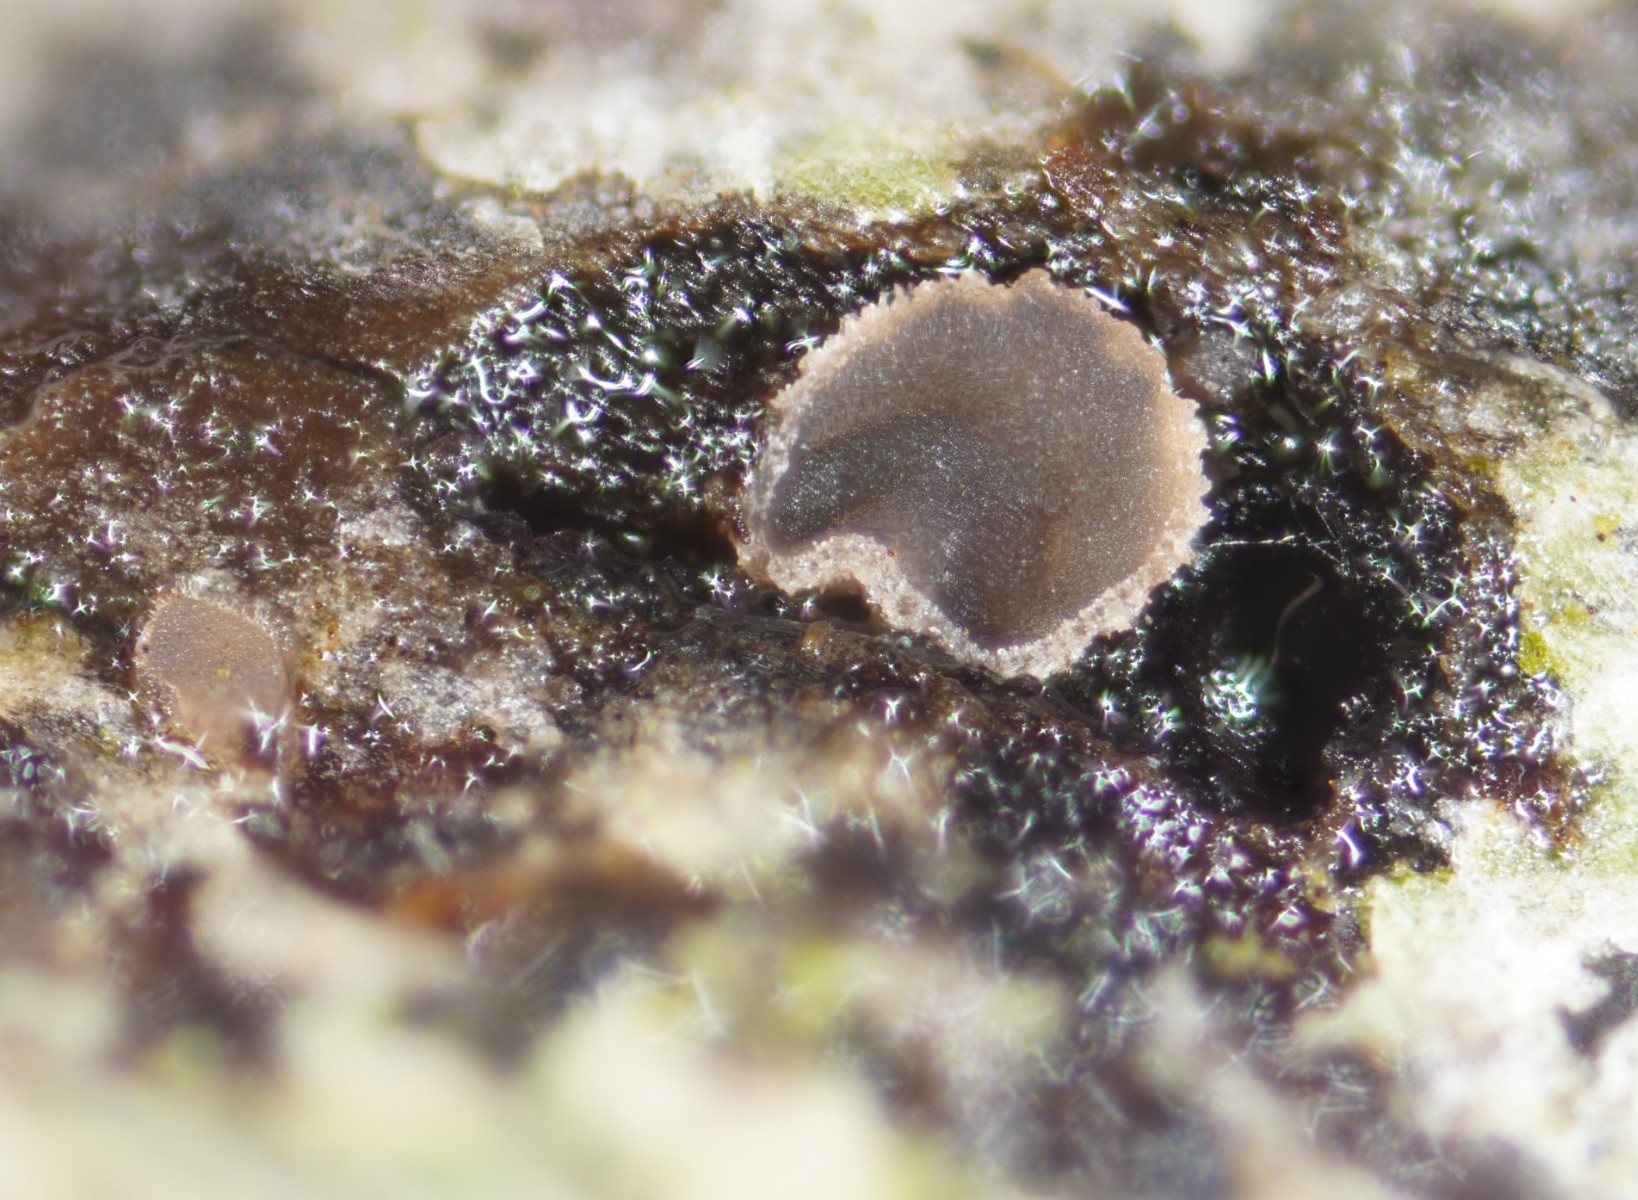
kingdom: Fungi
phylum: Ascomycota
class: Orbiliomycetes
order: Orbiliales
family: Orbiliaceae
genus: Orbilia
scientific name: Orbilia phragmotricha
